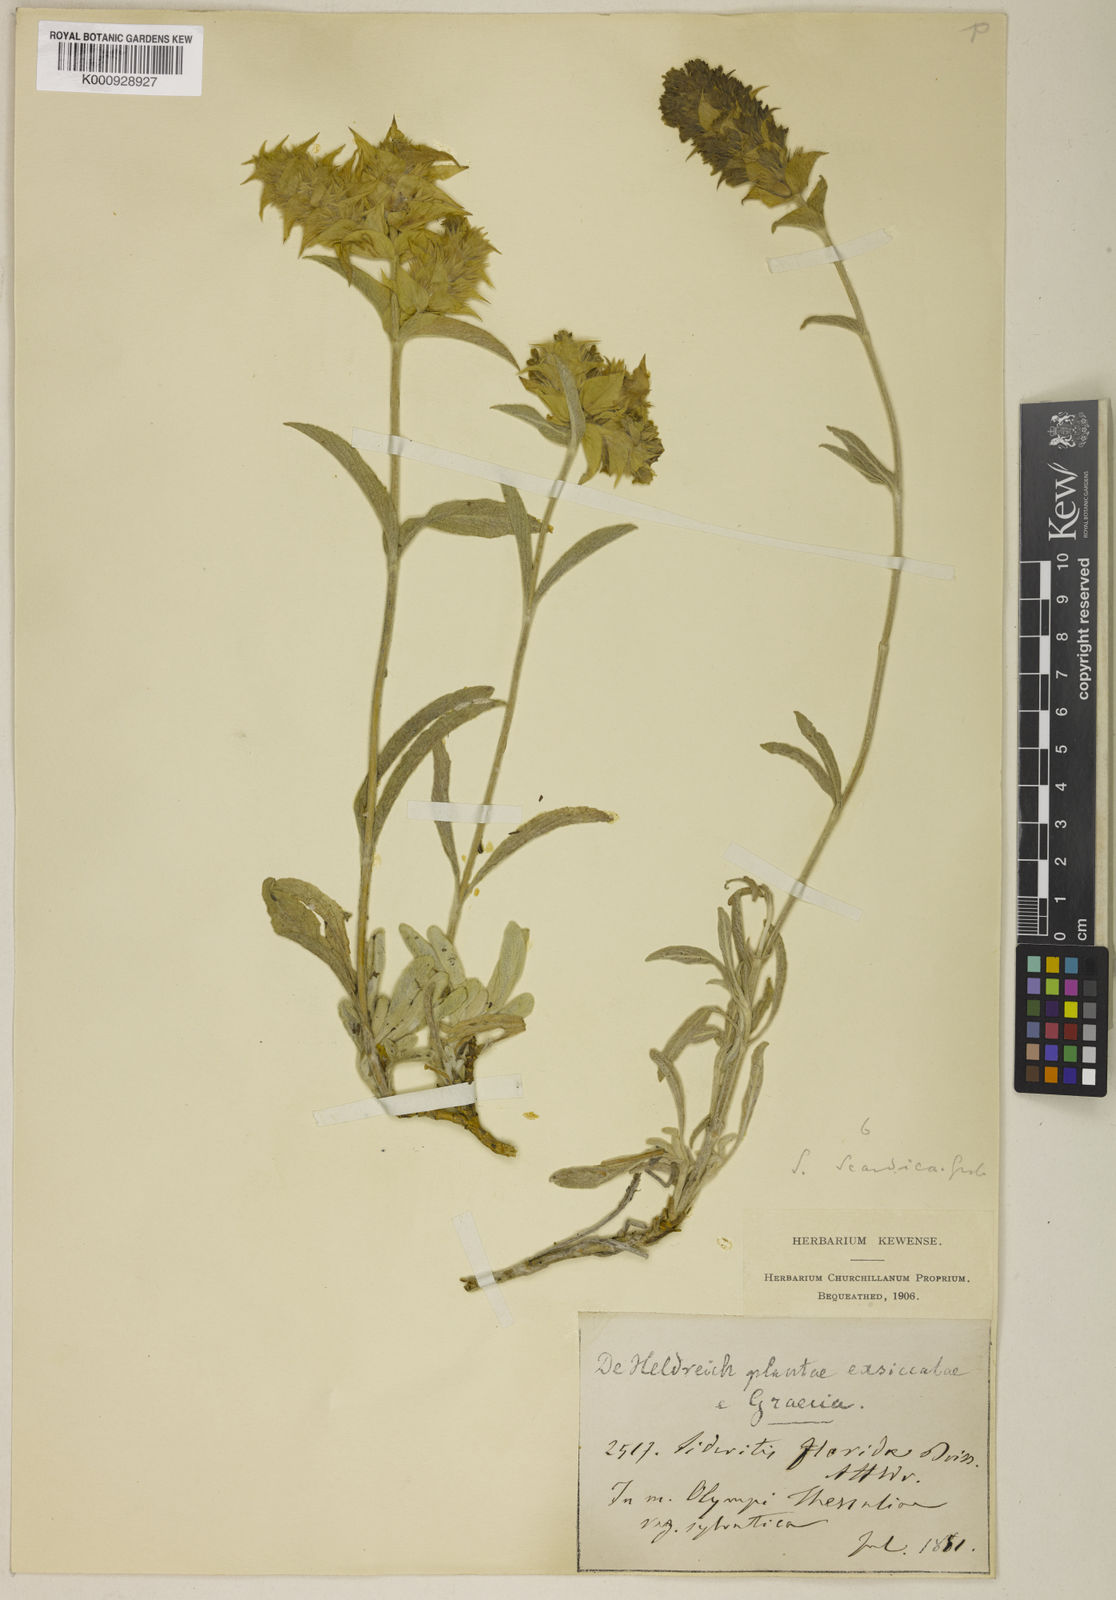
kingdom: Plantae
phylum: Tracheophyta
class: Magnoliopsida
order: Lamiales
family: Lamiaceae
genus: Sideritis
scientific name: Sideritis scardica
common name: Greek mountain tea
